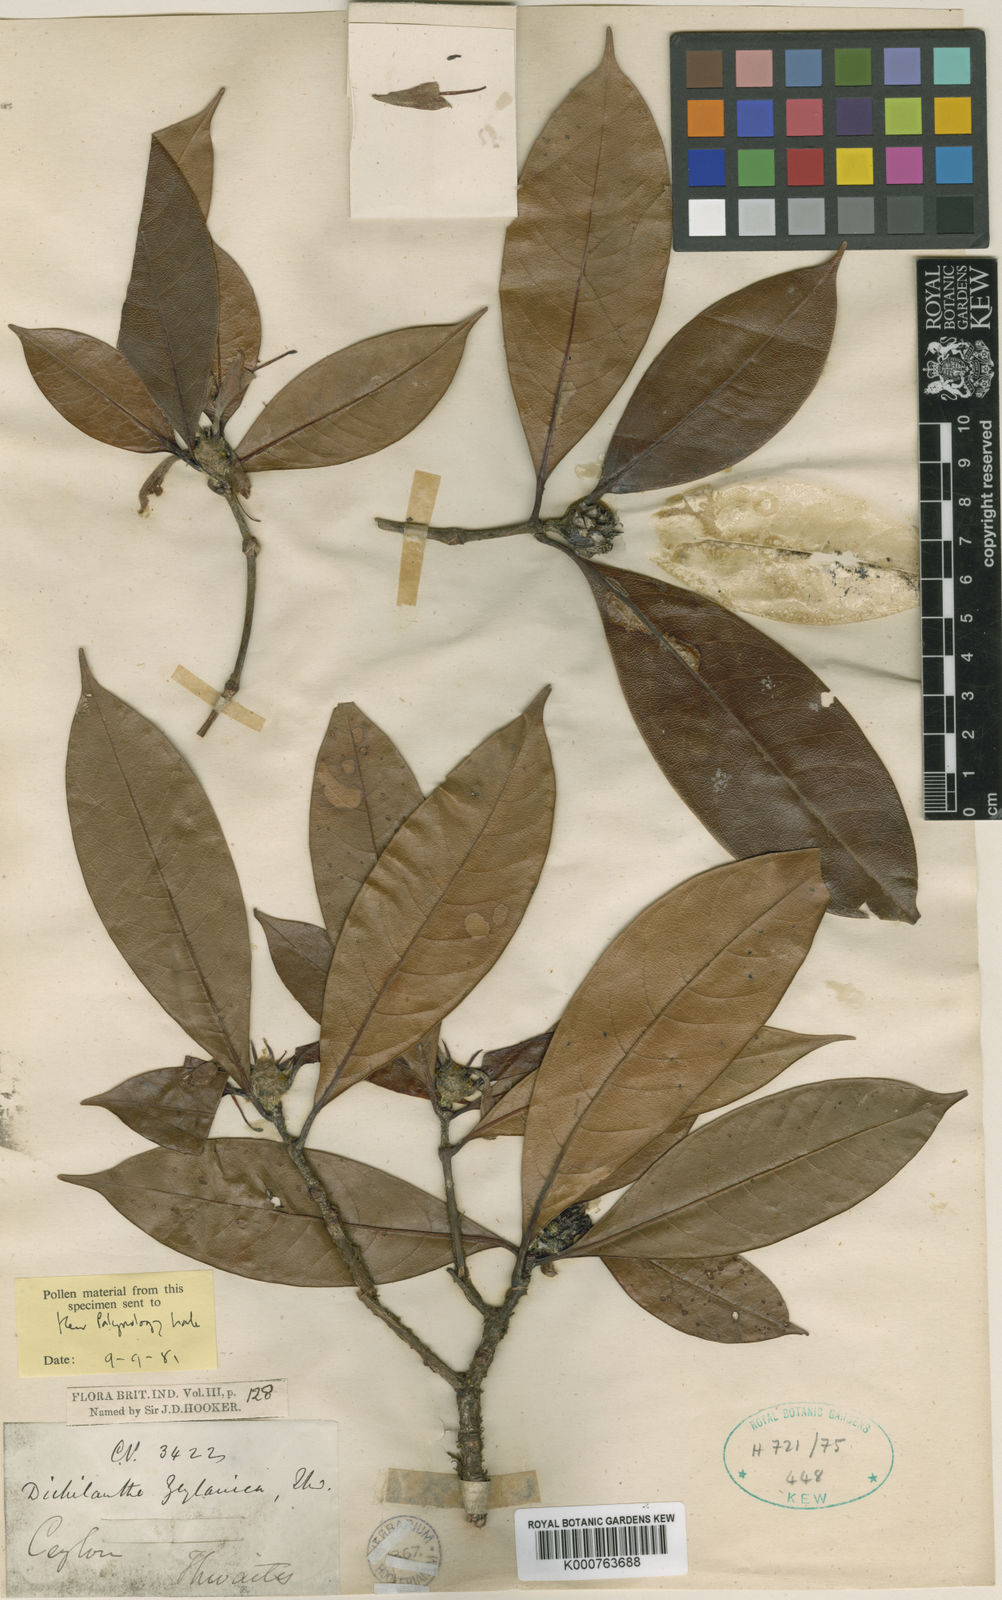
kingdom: Plantae
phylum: Tracheophyta
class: Magnoliopsida
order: Gentianales
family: Rubiaceae
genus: Dichilanthe
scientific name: Dichilanthe zeylanica
